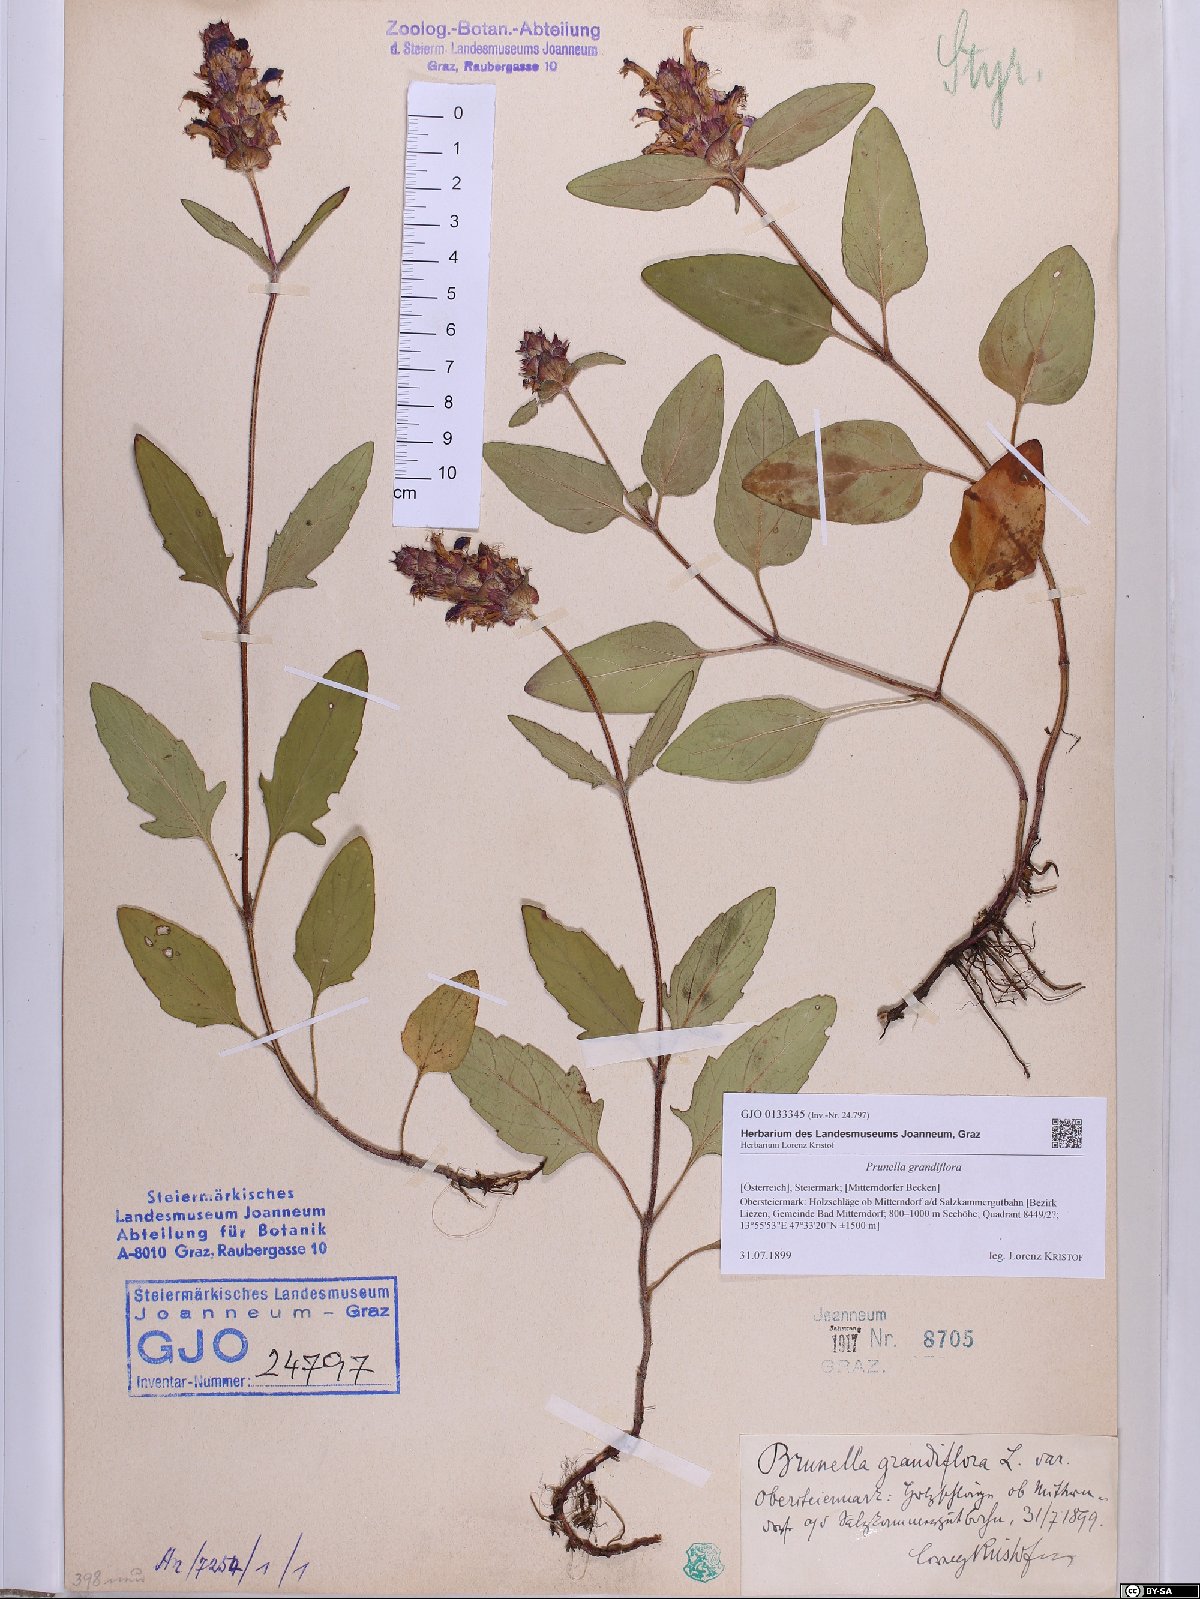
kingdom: Plantae
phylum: Tracheophyta
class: Magnoliopsida
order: Lamiales
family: Lamiaceae
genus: Prunella
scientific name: Prunella grandiflora
